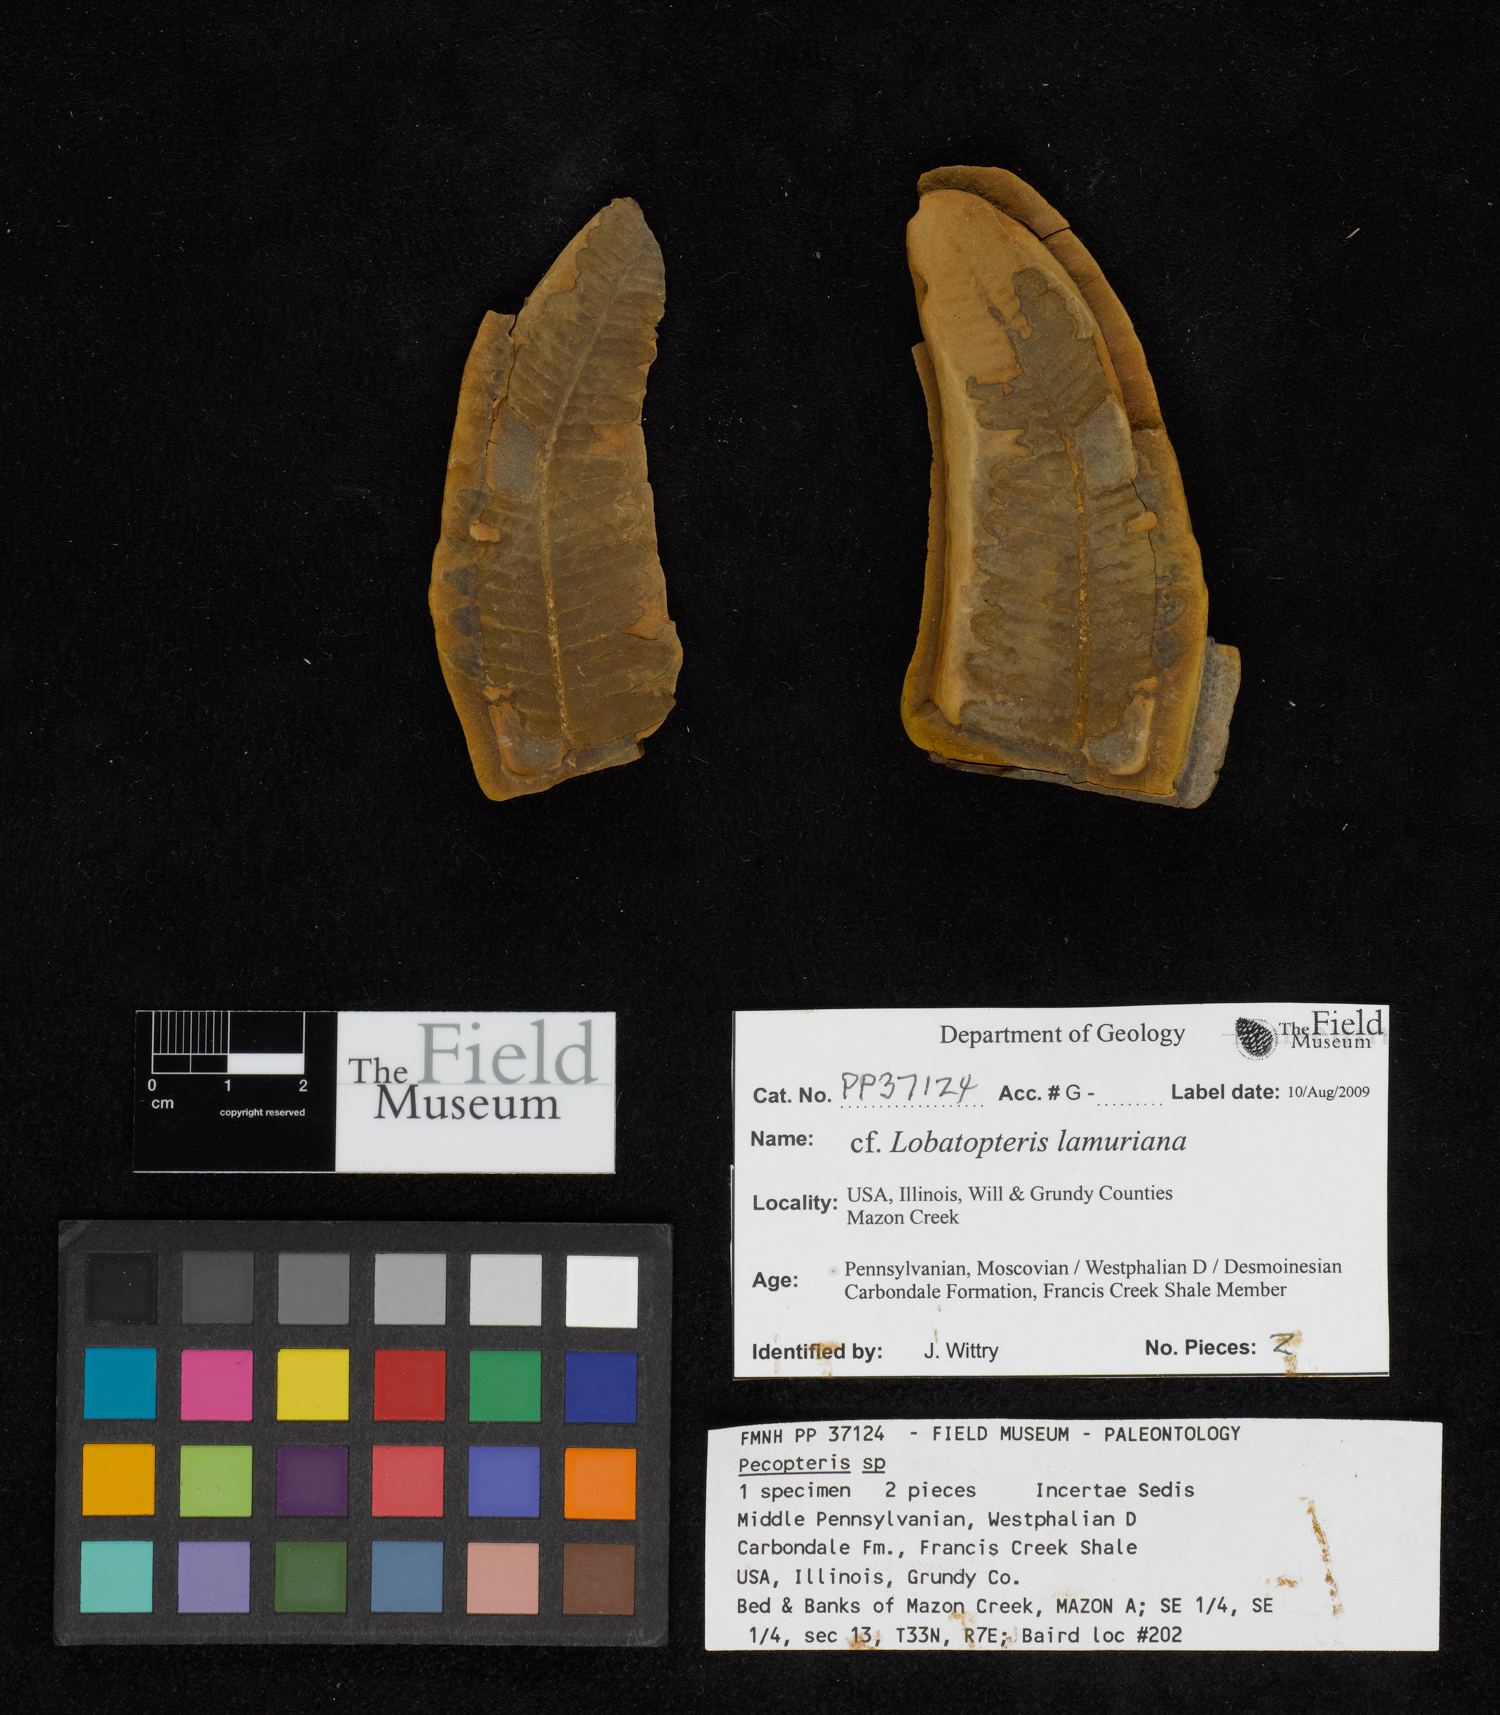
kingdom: Plantae
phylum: Tracheophyta
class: Polypodiopsida
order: Marattiales
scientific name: Marattiales
